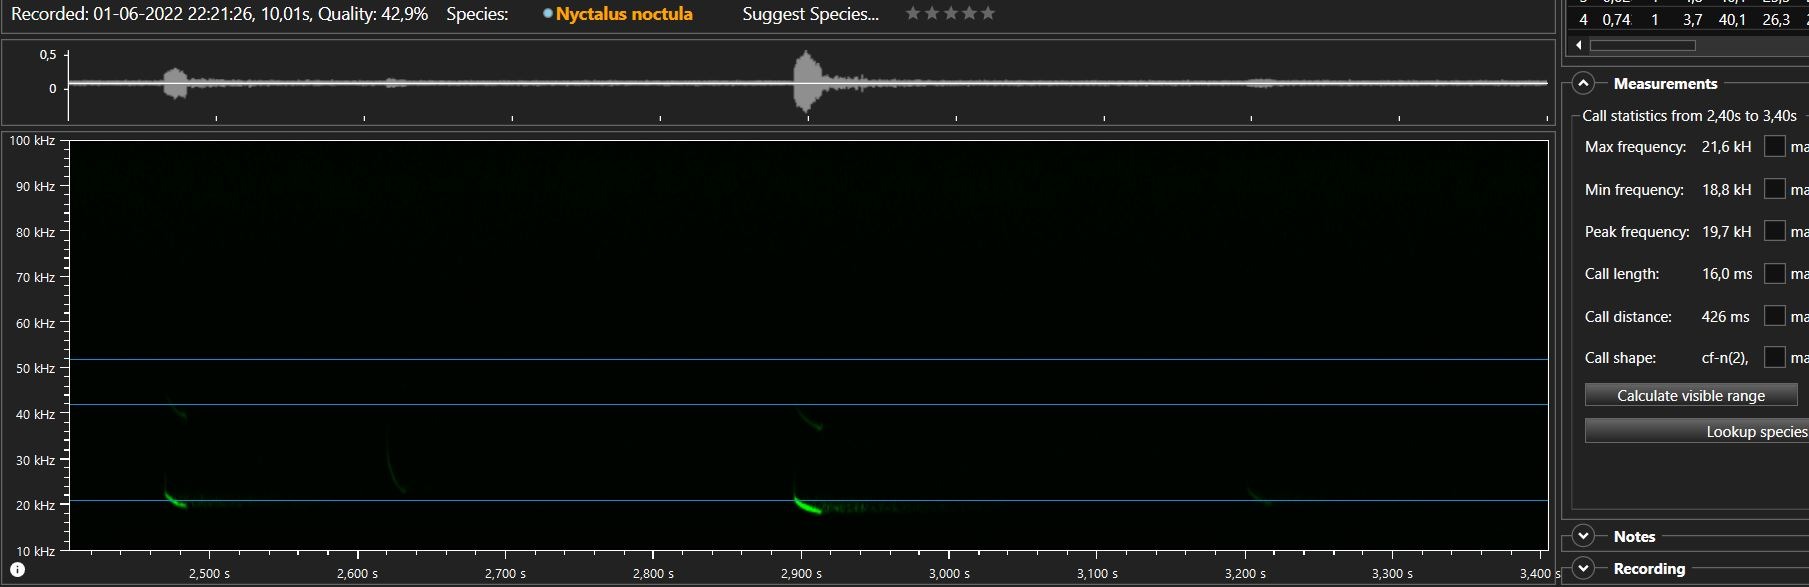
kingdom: Animalia
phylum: Chordata
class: Mammalia
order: Chiroptera
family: Vespertilionidae
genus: Nyctalus
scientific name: Nyctalus noctula
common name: Brunflagermus
